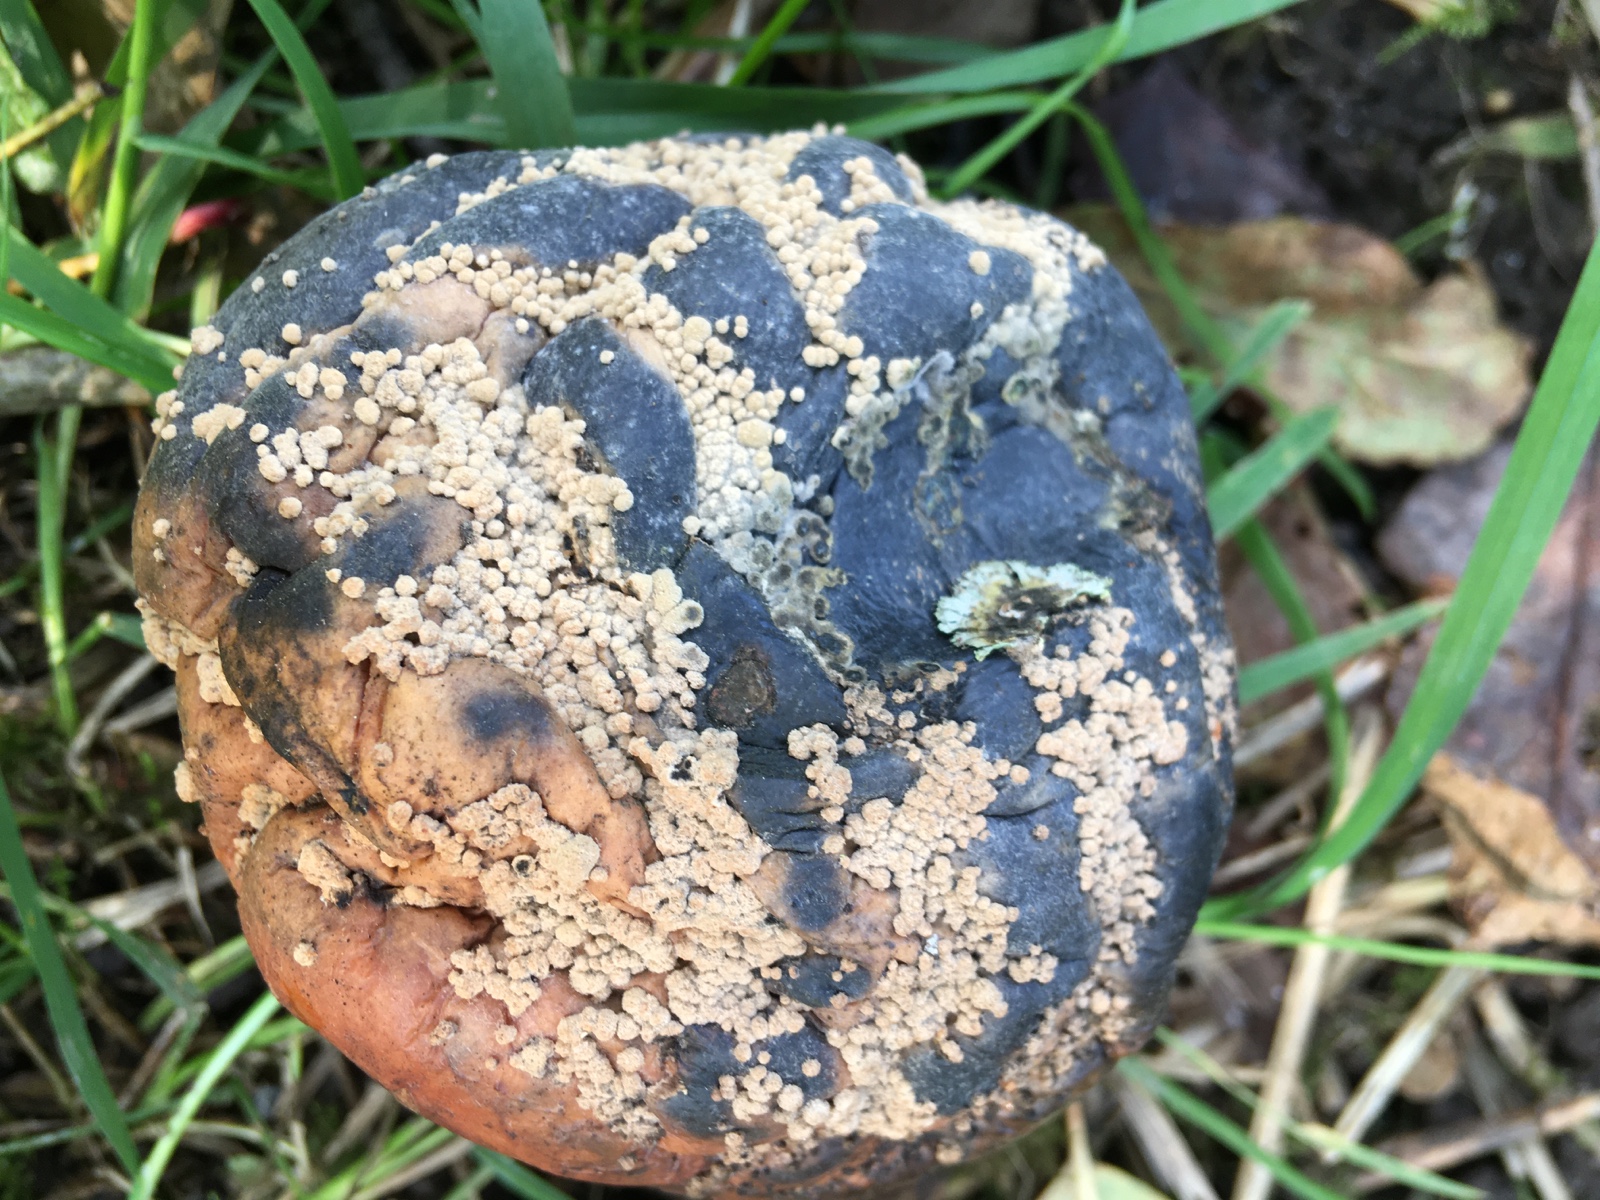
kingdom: Fungi
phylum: Ascomycota
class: Leotiomycetes
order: Helotiales
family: Sclerotiniaceae
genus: Monilinia
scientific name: Monilinia fructigena
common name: æble-knoldskive
